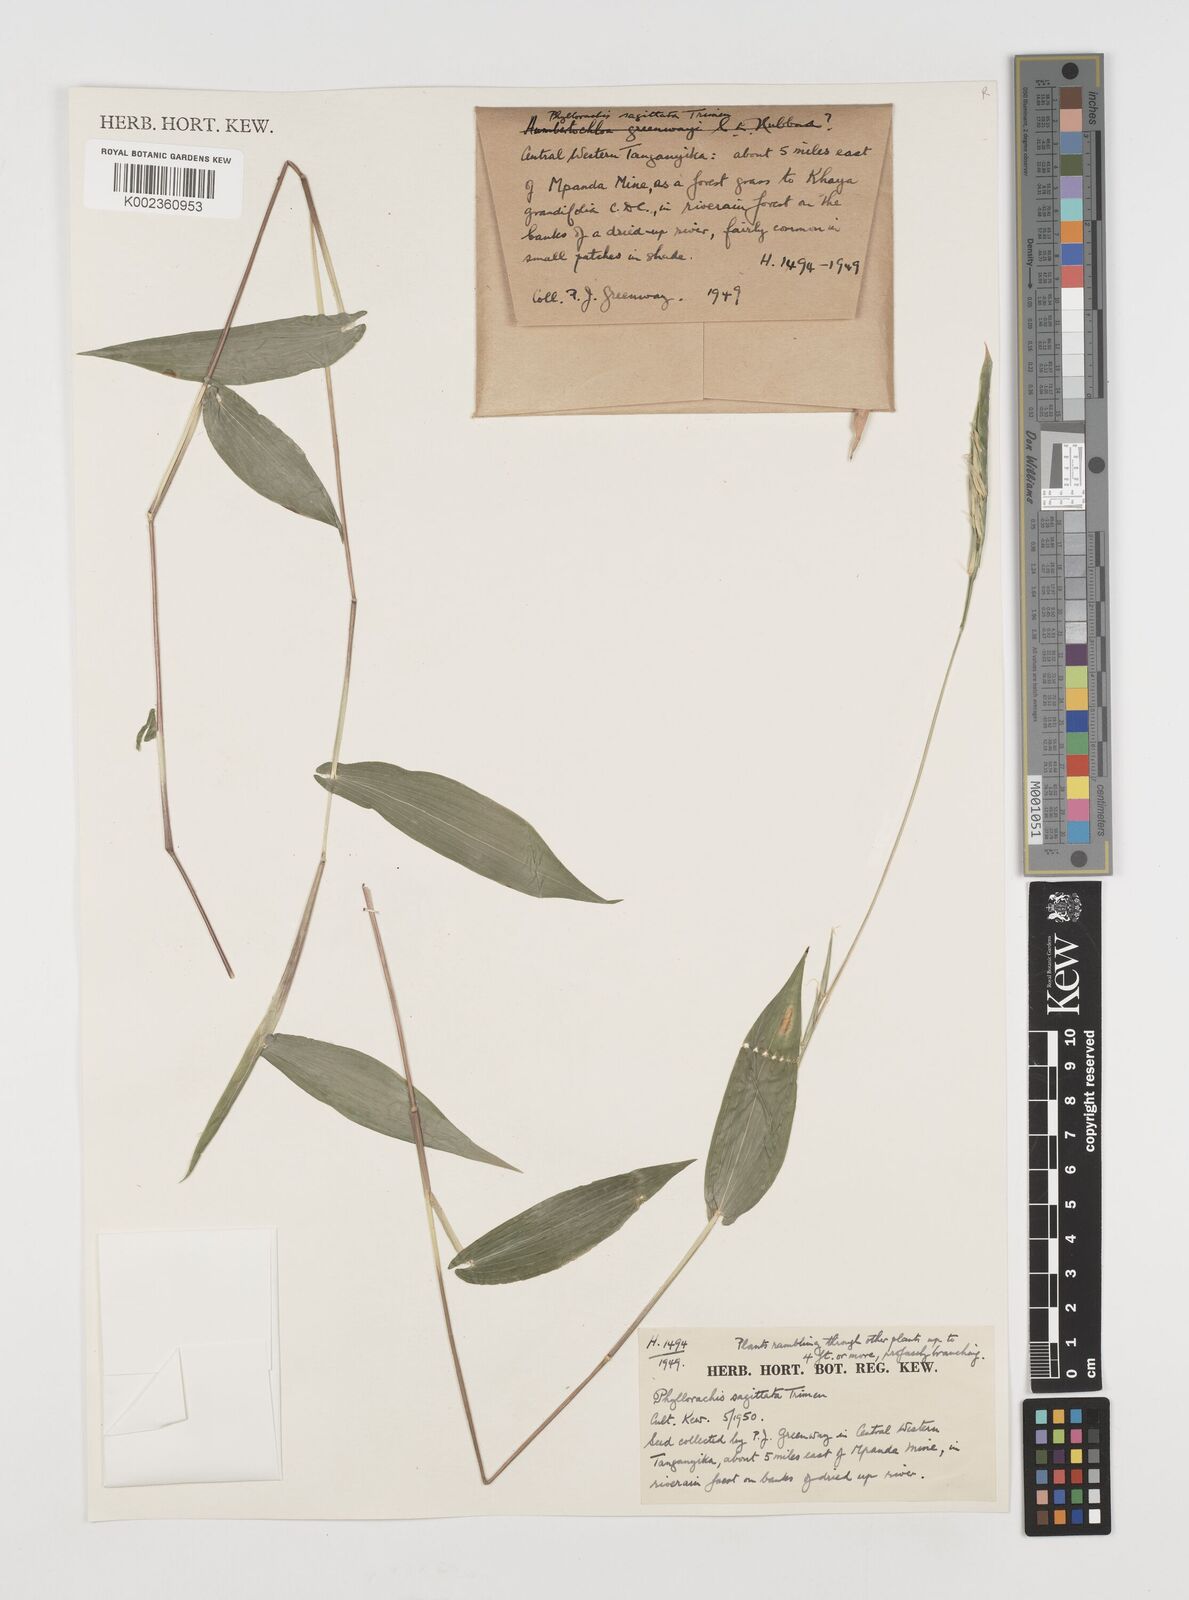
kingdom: Plantae
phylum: Tracheophyta
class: Liliopsida
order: Poales
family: Poaceae
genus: Phyllorachis
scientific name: Phyllorachis sagittata
